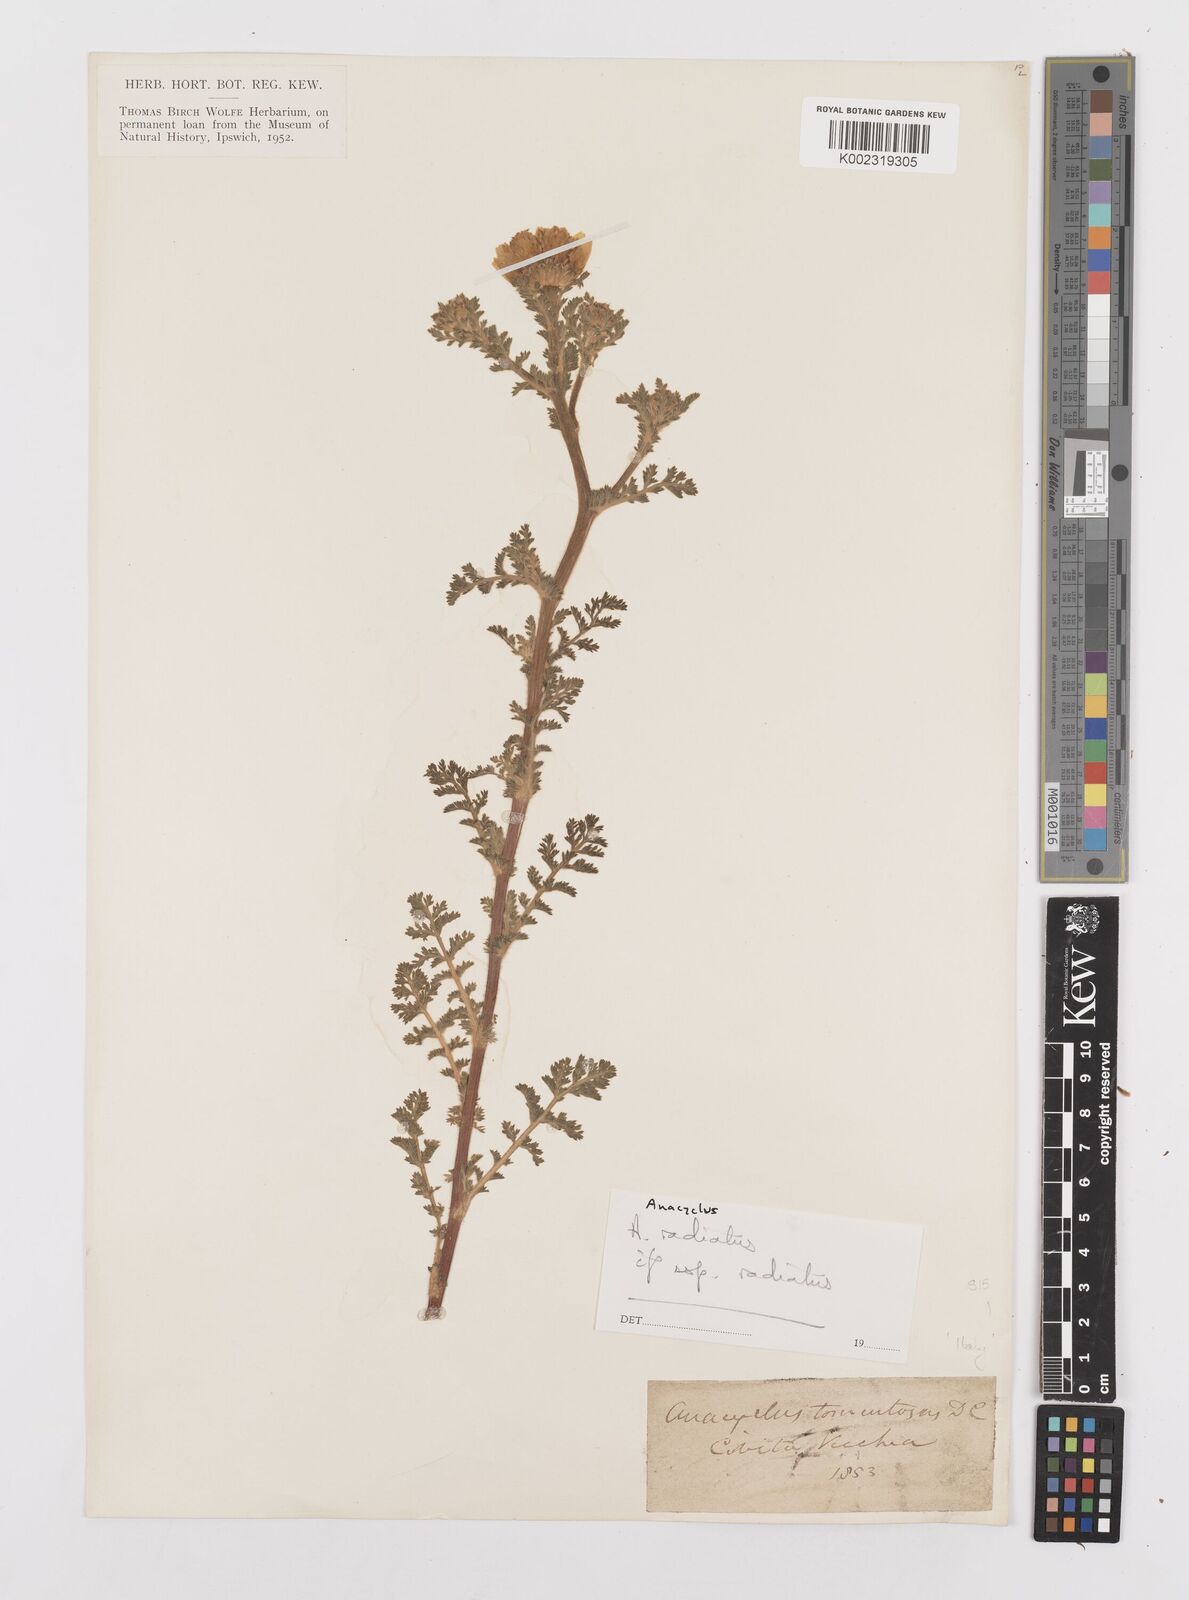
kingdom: Plantae
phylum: Tracheophyta
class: Magnoliopsida
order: Asterales
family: Asteraceae
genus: Anacyclus
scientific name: Anacyclus radiatus
